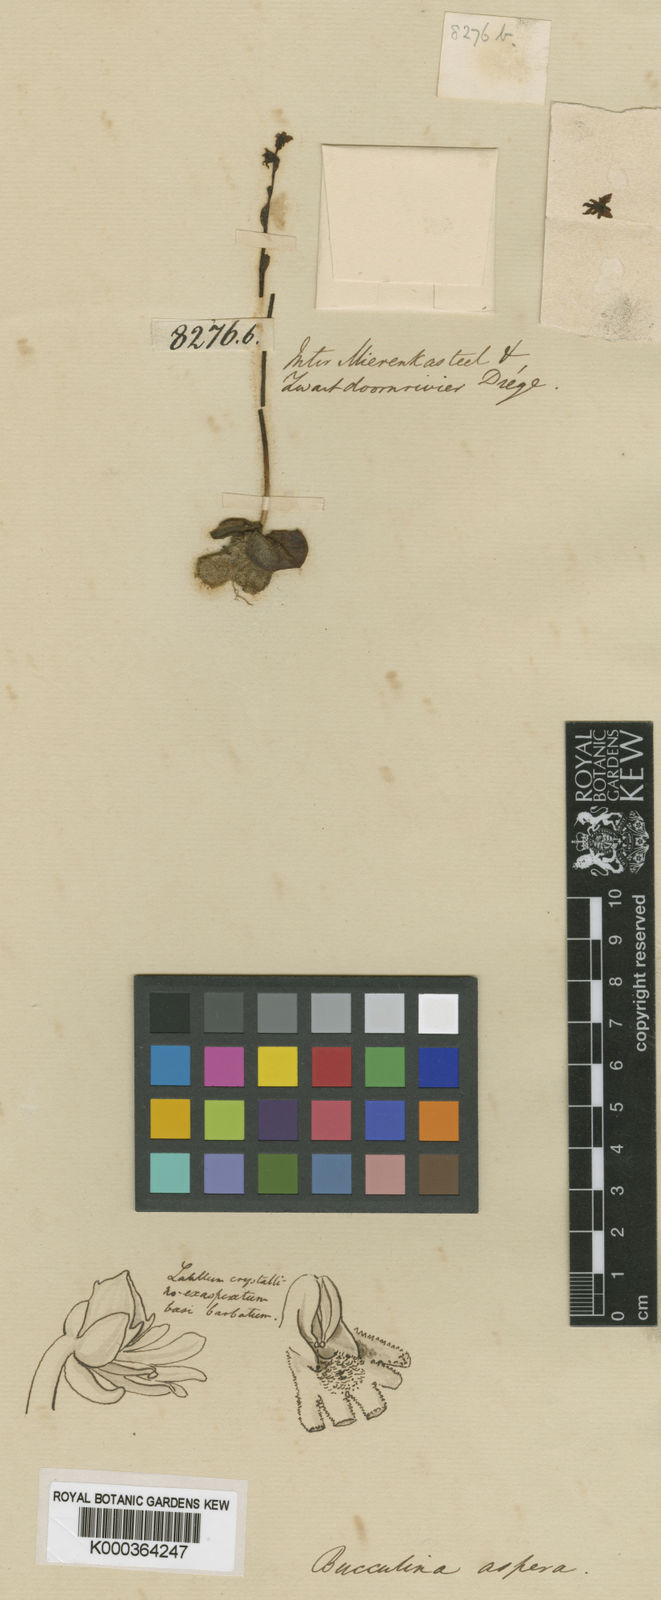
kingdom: Plantae
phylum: Tracheophyta
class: Liliopsida
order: Asparagales
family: Orchidaceae
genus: Holothrix
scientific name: Holothrix aspera
